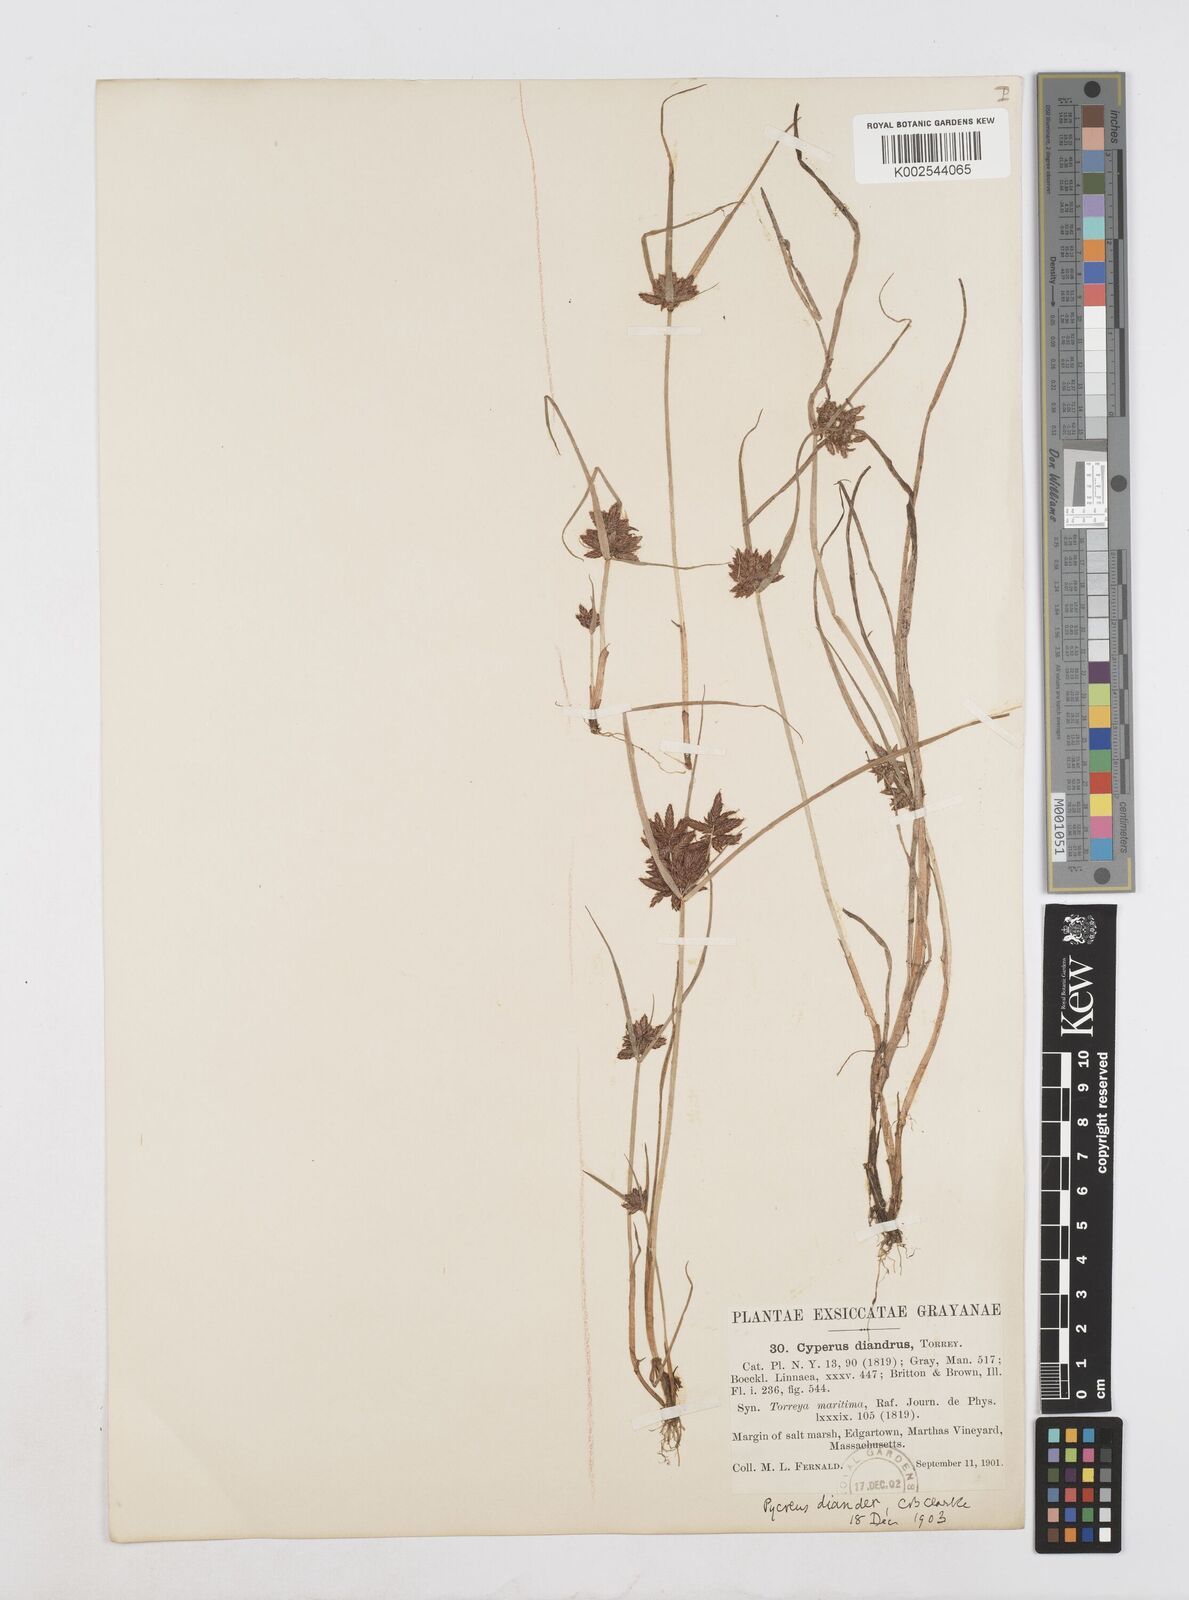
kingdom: Plantae
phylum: Tracheophyta
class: Liliopsida
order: Poales
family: Cyperaceae
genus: Cyperus
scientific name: Cyperus diandrus
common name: Low cyperus
